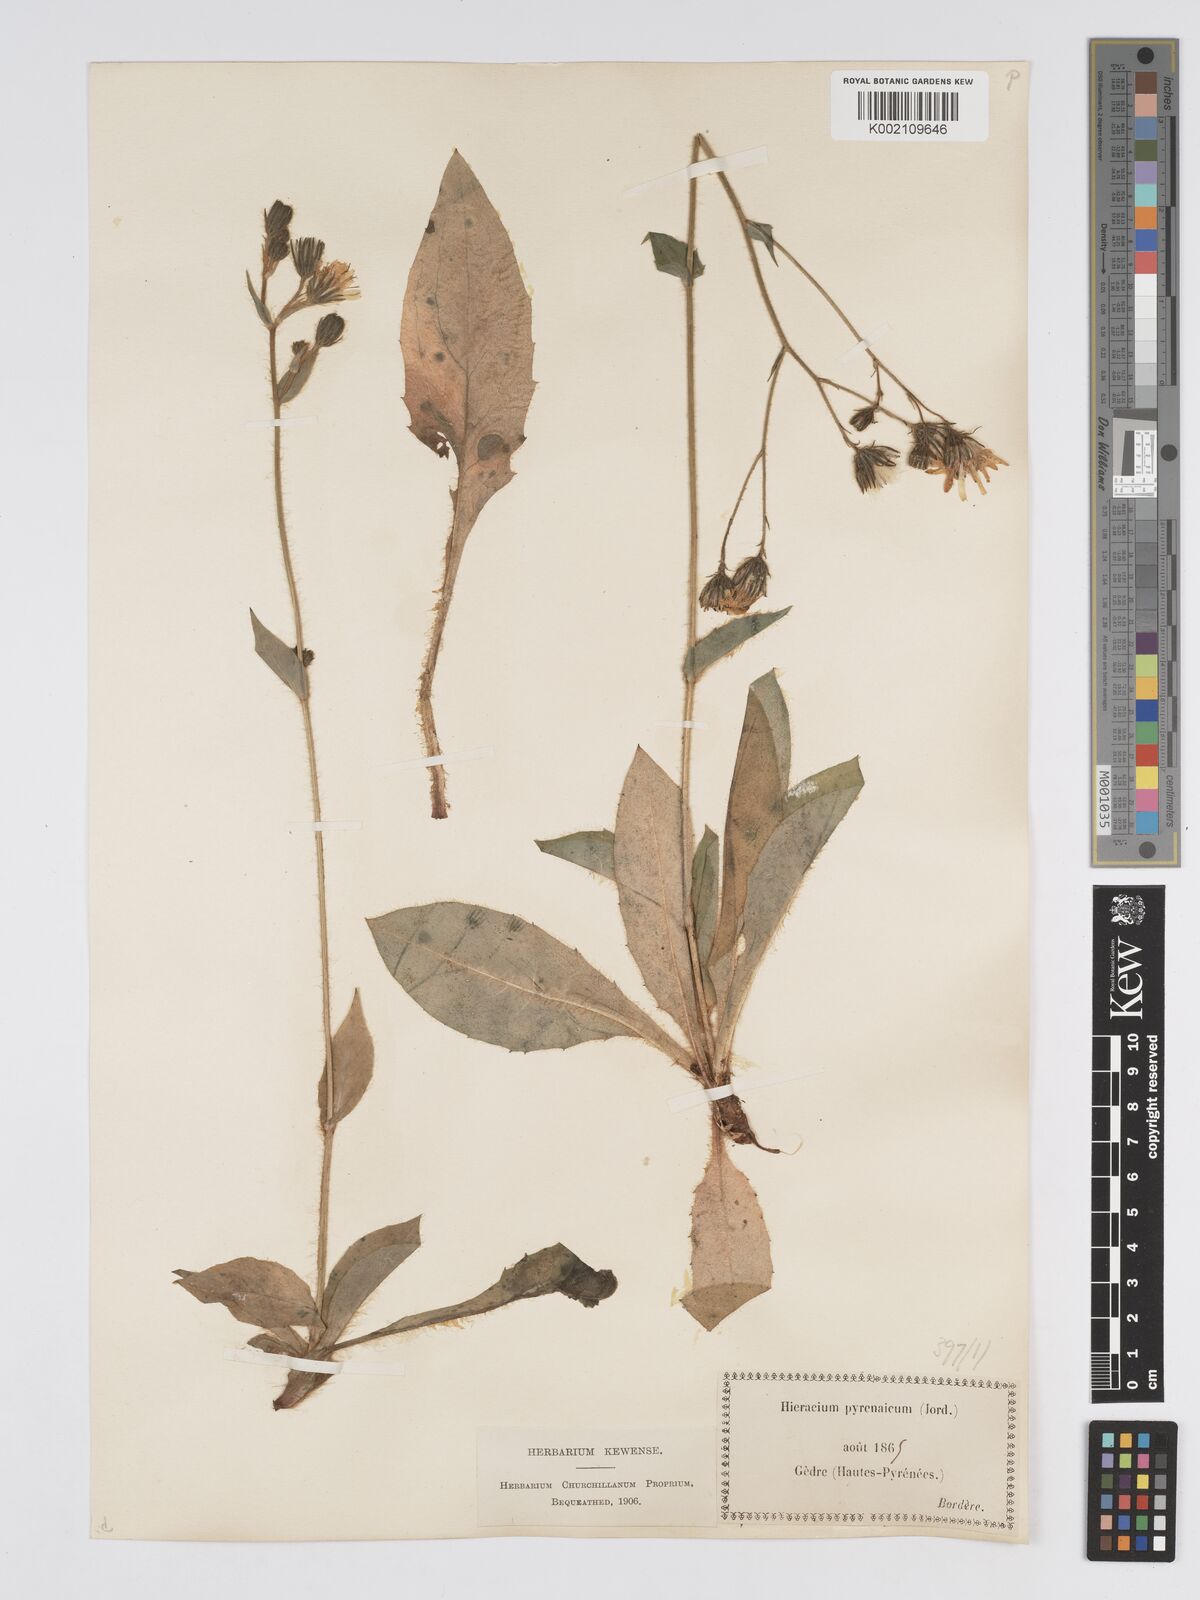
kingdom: Plantae
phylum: Tracheophyta
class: Magnoliopsida
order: Asterales
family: Asteraceae
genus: Hieracium
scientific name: Hieracium nobile
